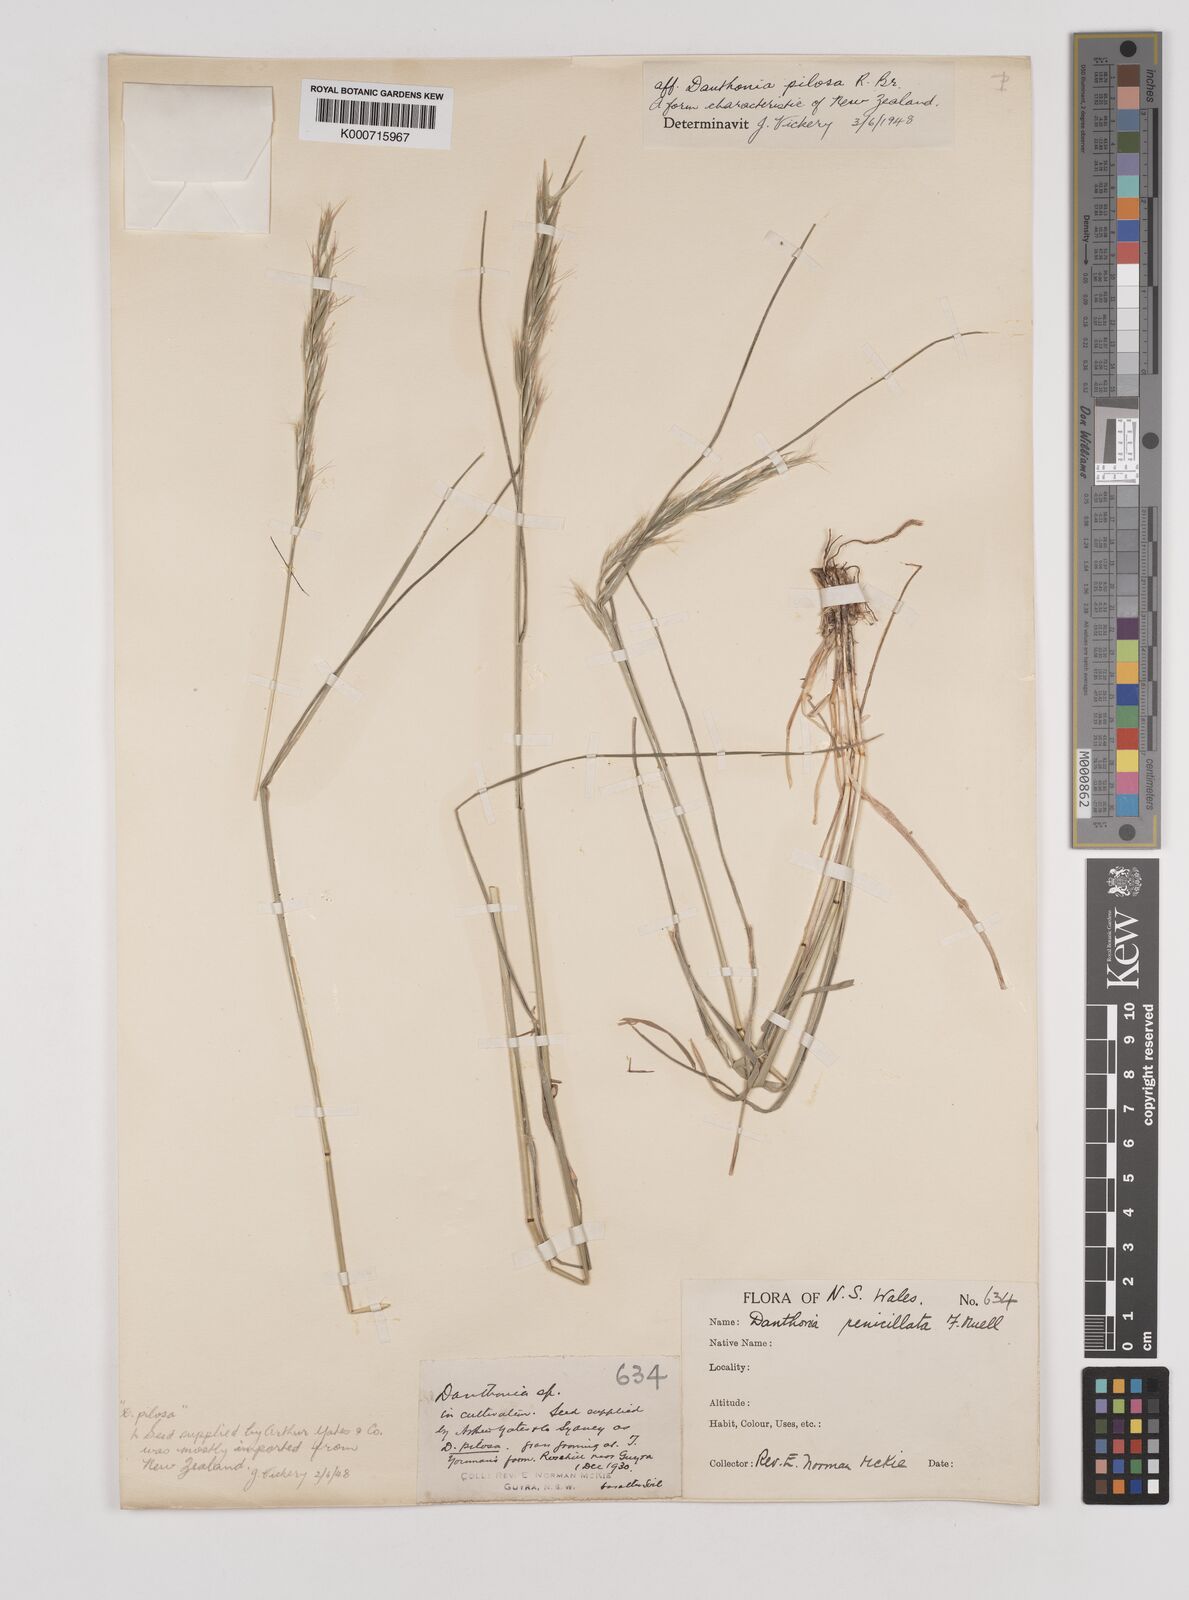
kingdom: Plantae
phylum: Tracheophyta
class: Liliopsida
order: Poales
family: Poaceae
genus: Rytidosperma
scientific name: Rytidosperma pilosum
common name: Hairy wallaby grass
